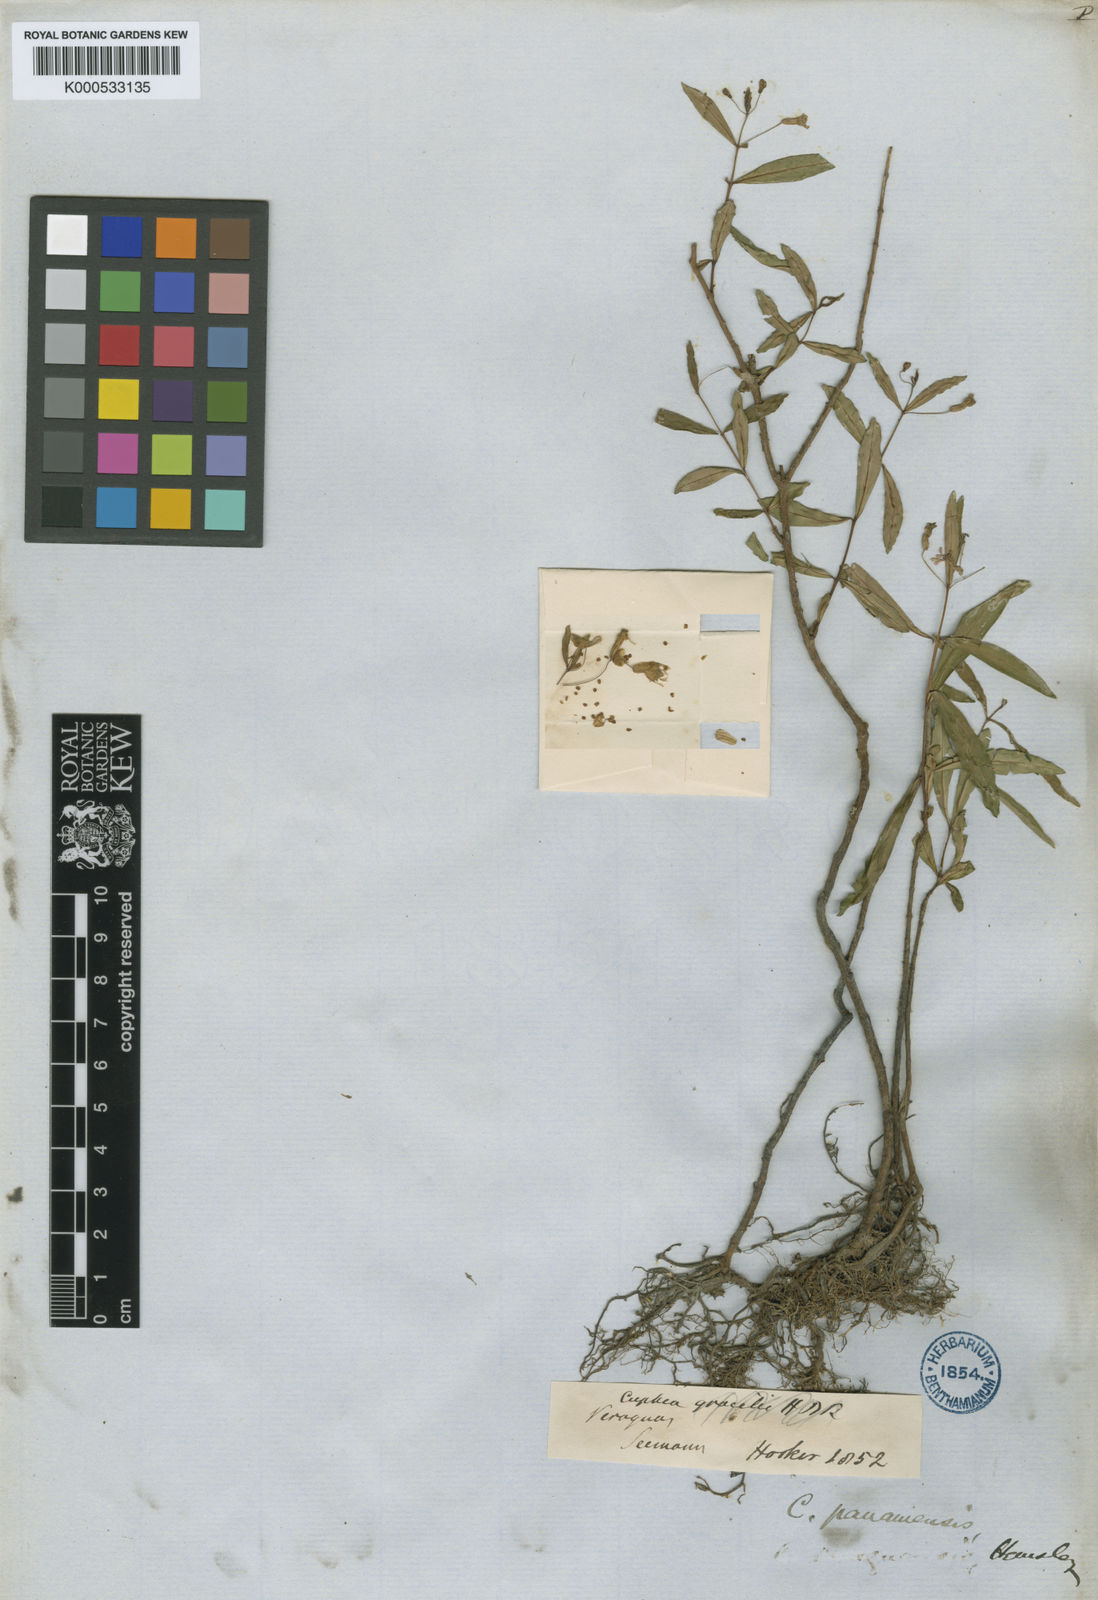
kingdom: Plantae
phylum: Tracheophyta
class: Magnoliopsida
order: Myrtales
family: Lythraceae
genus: Cuphea
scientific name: Cuphea utriculosa
